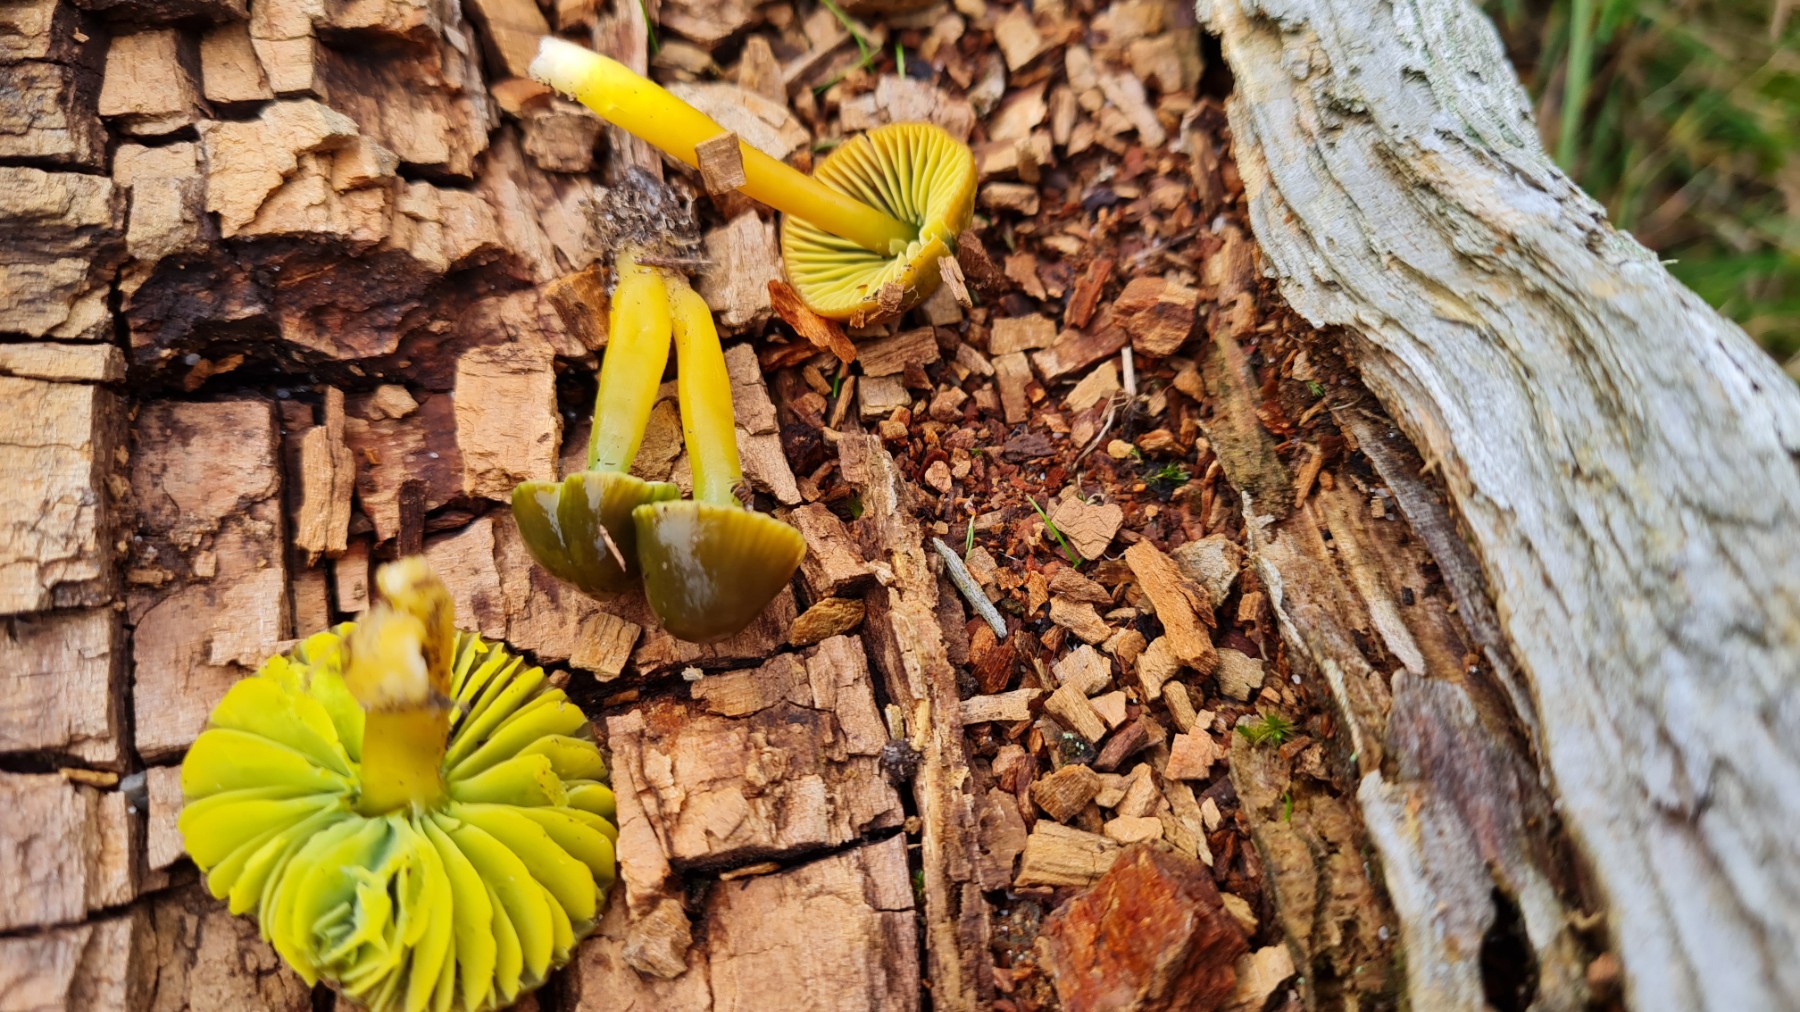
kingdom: Fungi
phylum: Basidiomycota
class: Agaricomycetes
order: Agaricales
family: Hygrophoraceae
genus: Gliophorus
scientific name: Gliophorus psittacinus
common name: papegøje-vokshat
